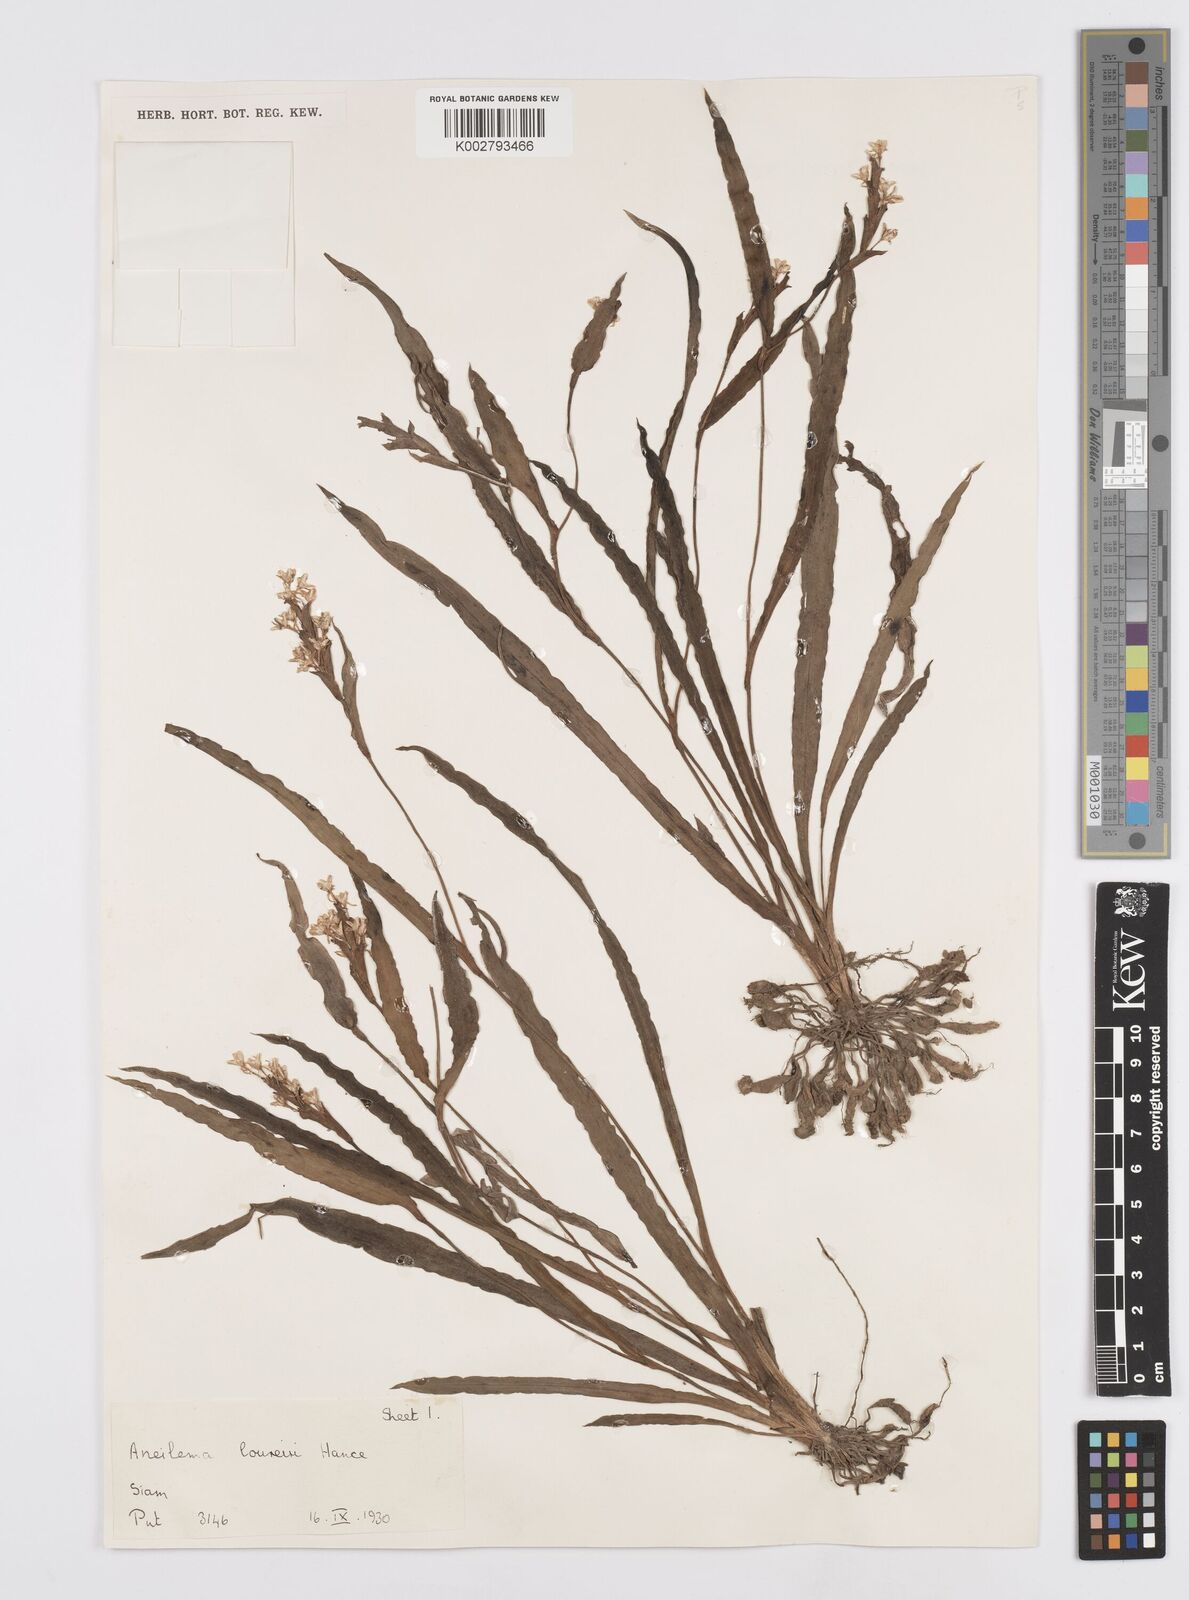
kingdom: Plantae
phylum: Tracheophyta
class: Liliopsida
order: Commelinales
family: Commelinaceae
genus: Murdannia
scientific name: Murdannia edulis
